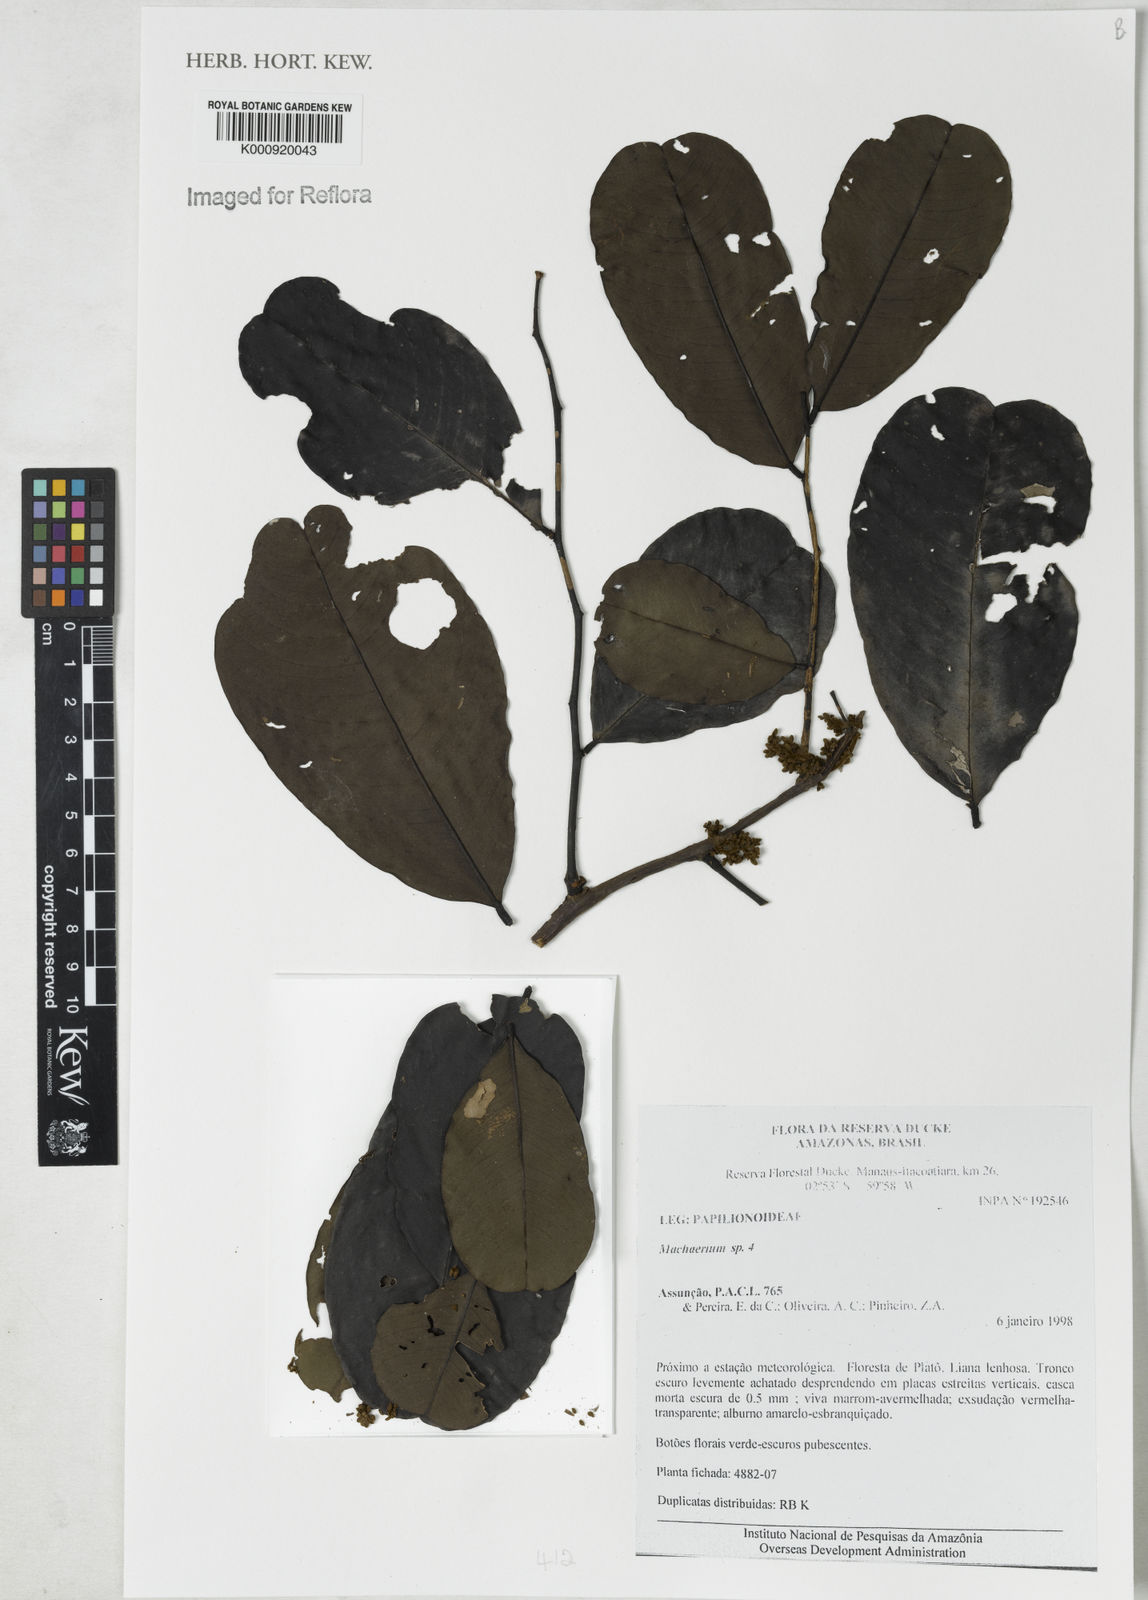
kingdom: Plantae
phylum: Tracheophyta
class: Magnoliopsida
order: Fabales
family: Fabaceae
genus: Machaerium
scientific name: Machaerium
